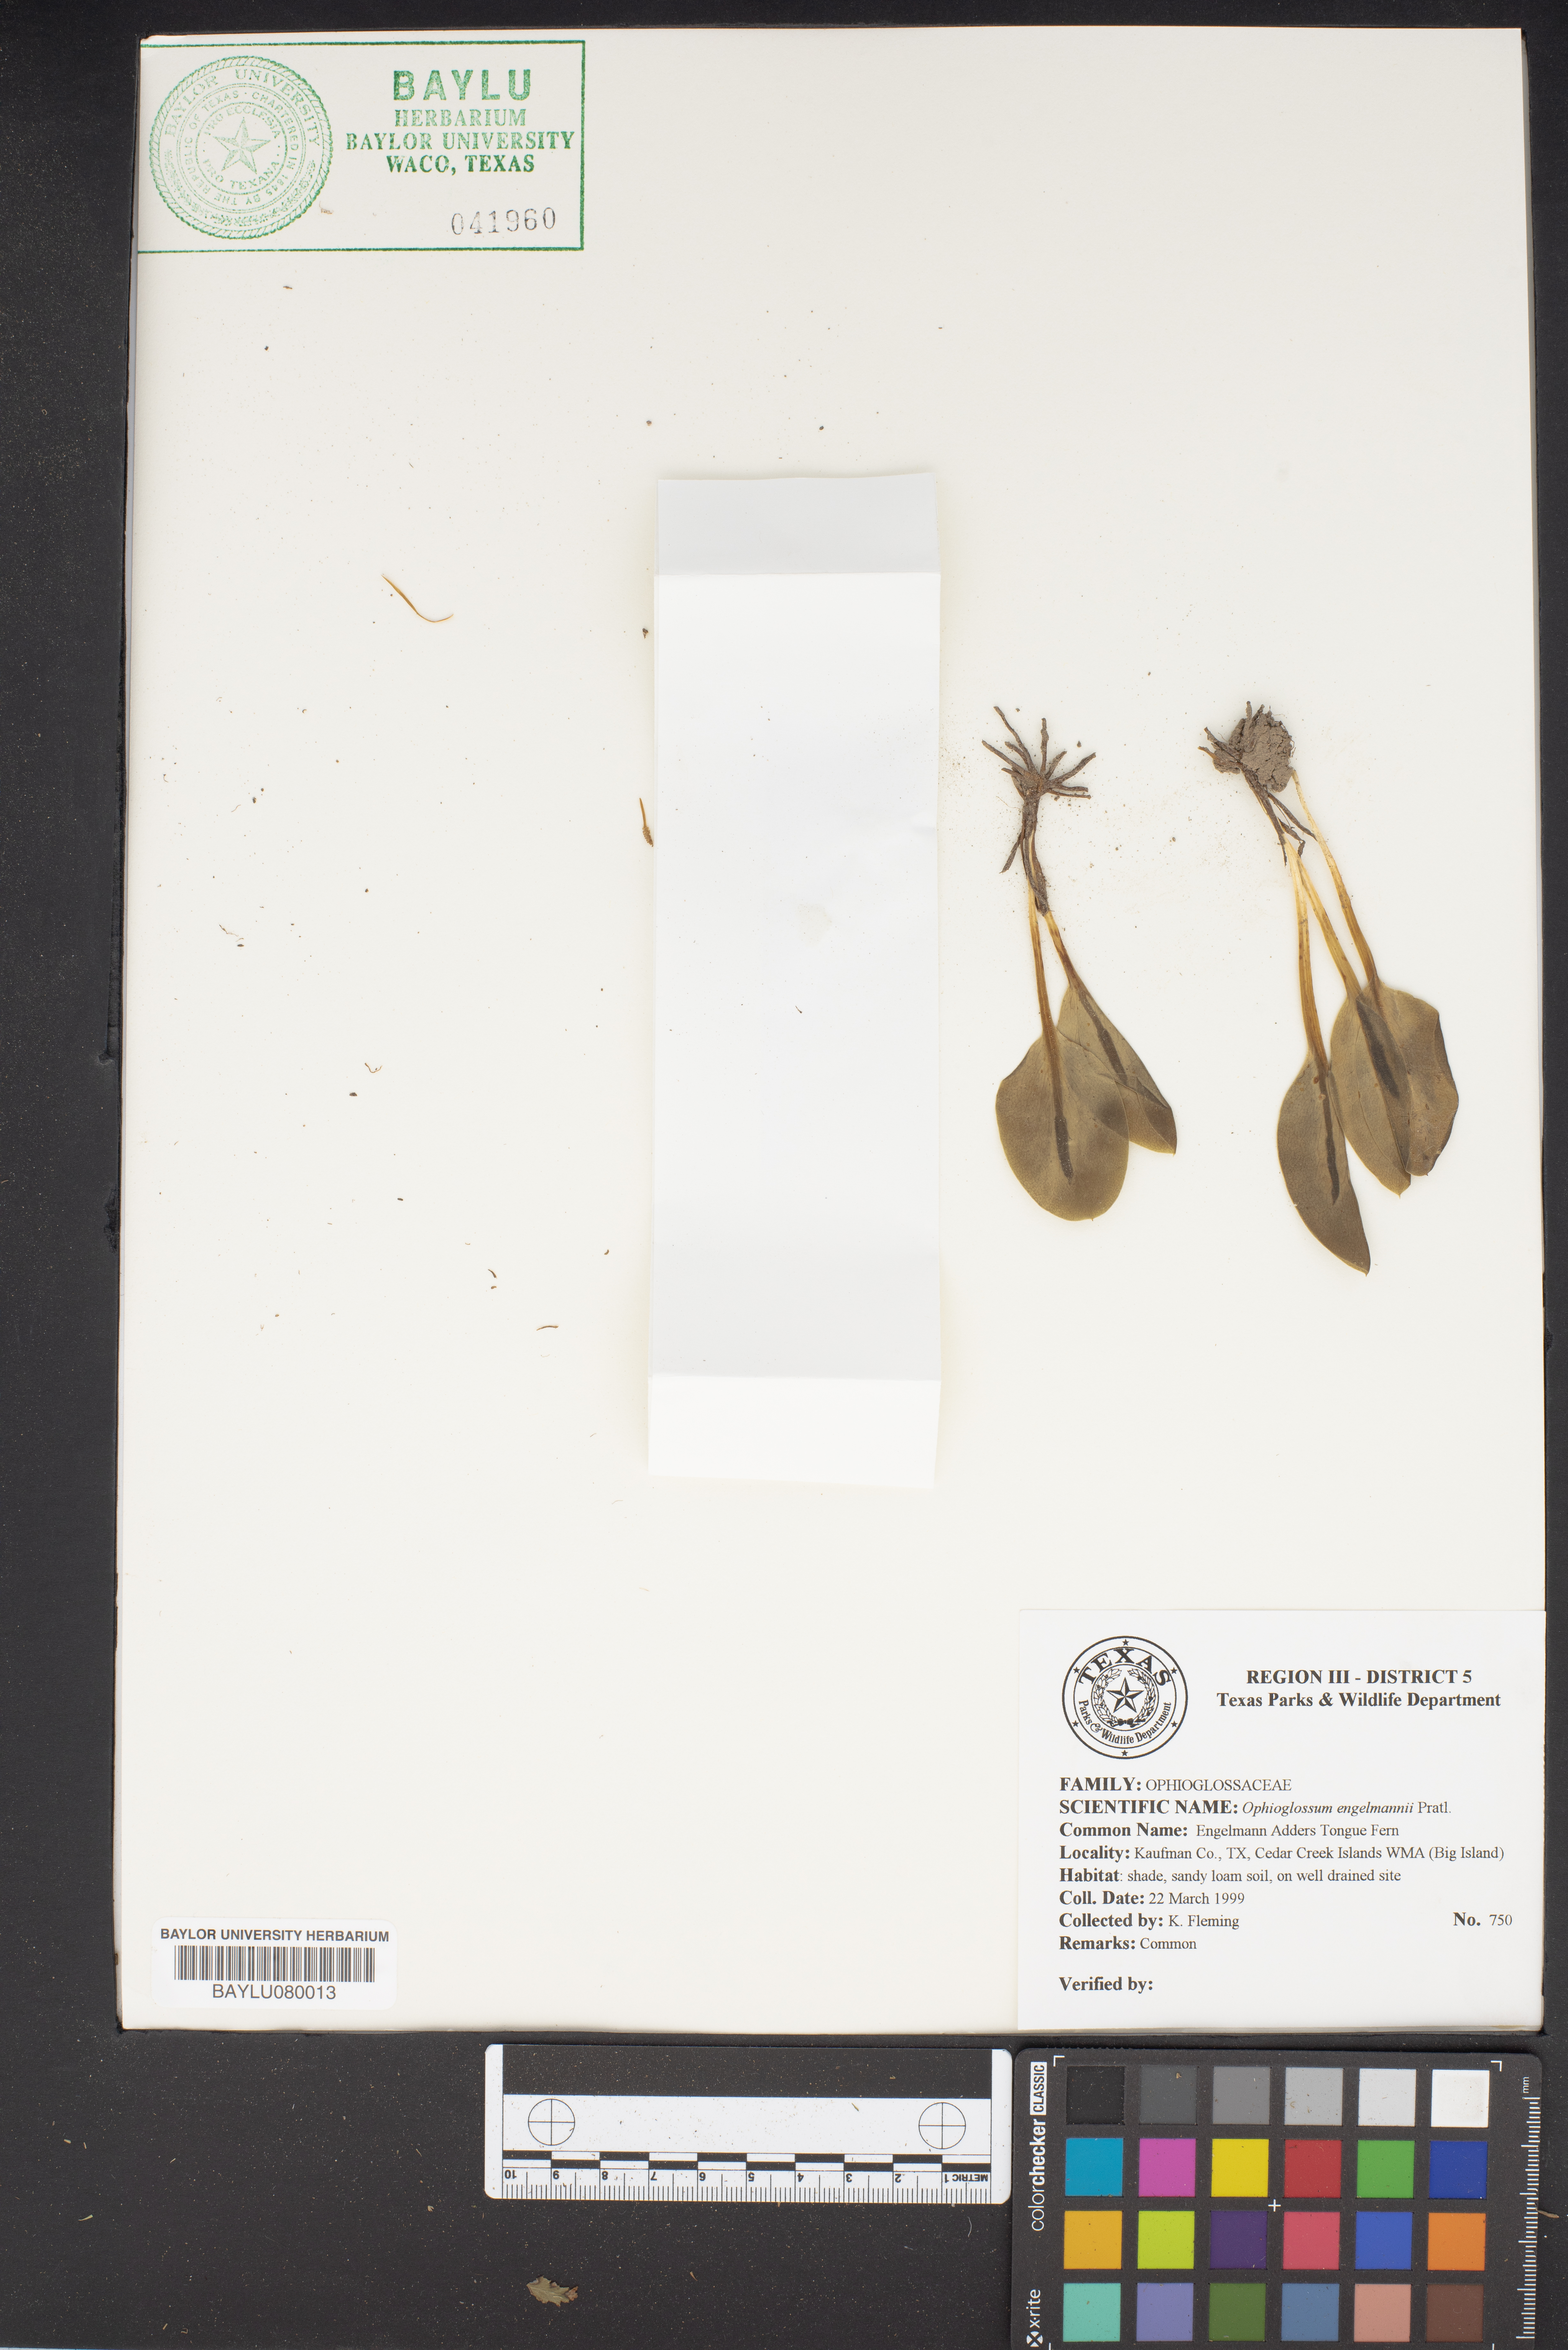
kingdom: Plantae
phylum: Tracheophyta
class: Polypodiopsida
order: Ophioglossales
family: Ophioglossaceae
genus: Ophioglossum
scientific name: Ophioglossum engelmannii
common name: Limestone adder's-tongue
